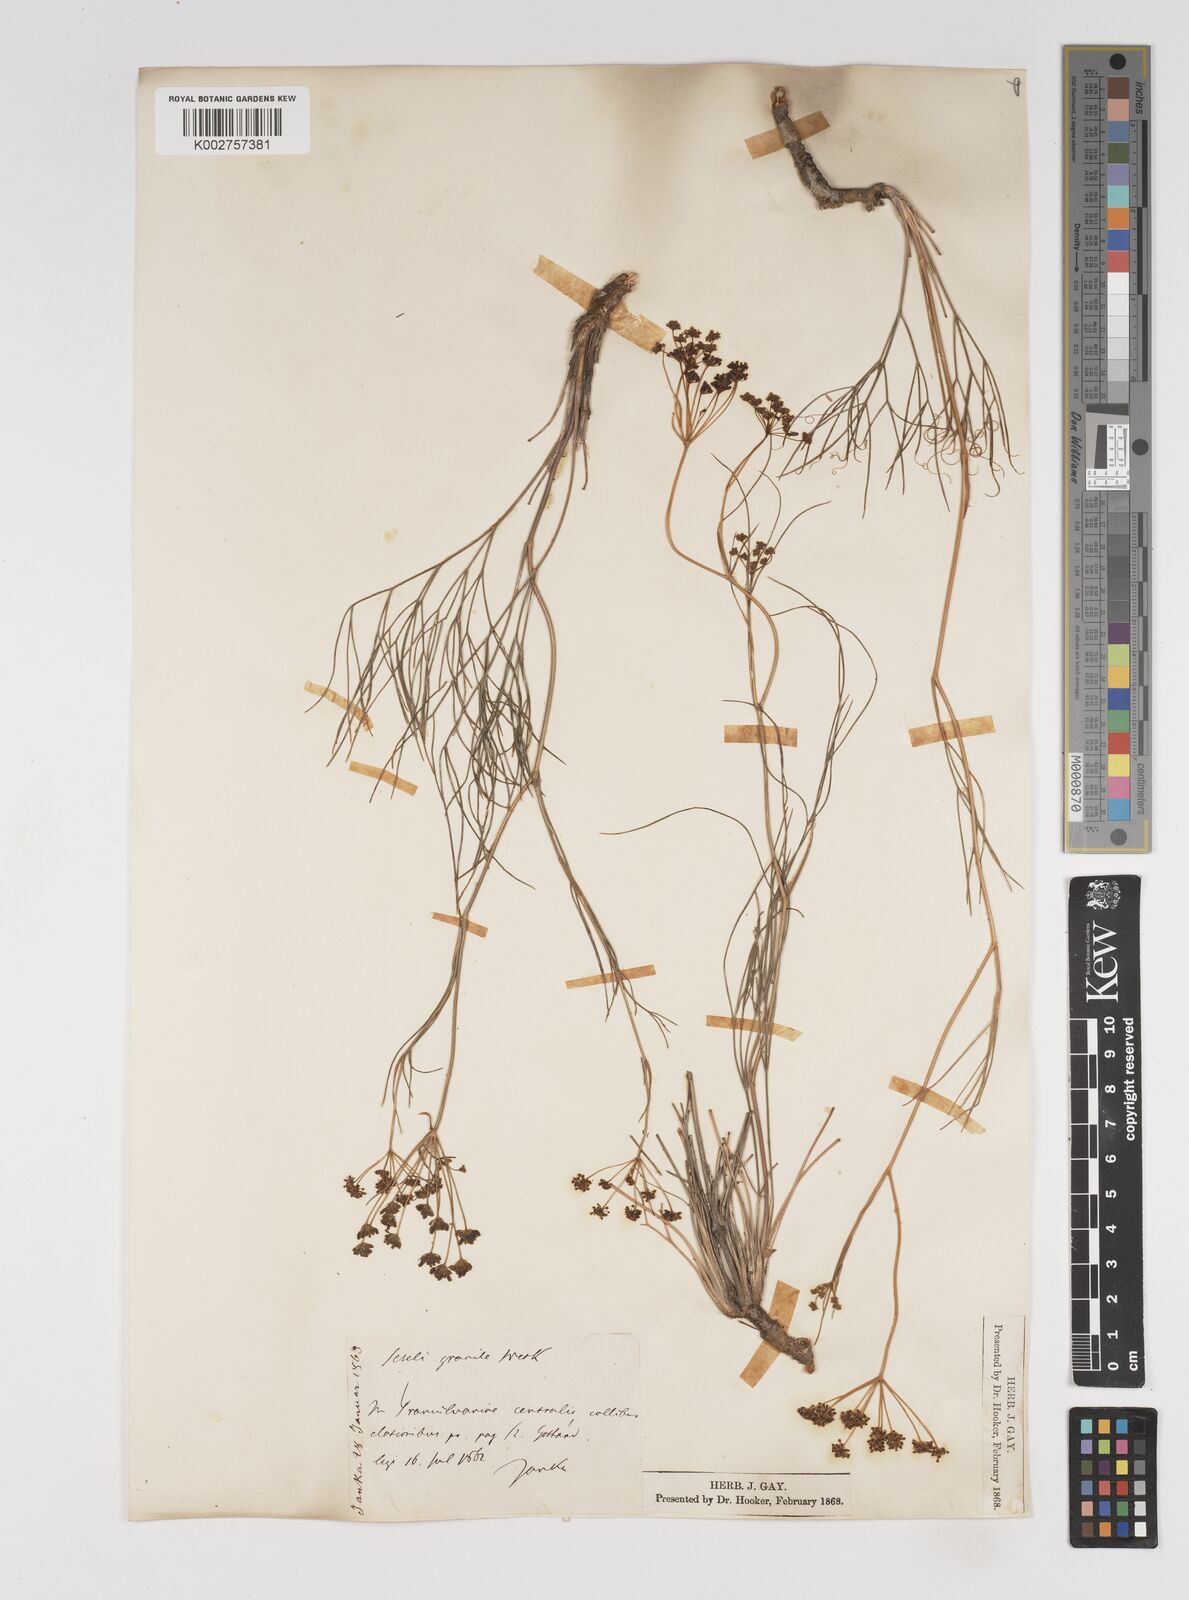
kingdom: Plantae
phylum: Tracheophyta
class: Magnoliopsida
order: Apiales
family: Apiaceae
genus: Seseli
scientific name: Seseli gracile
